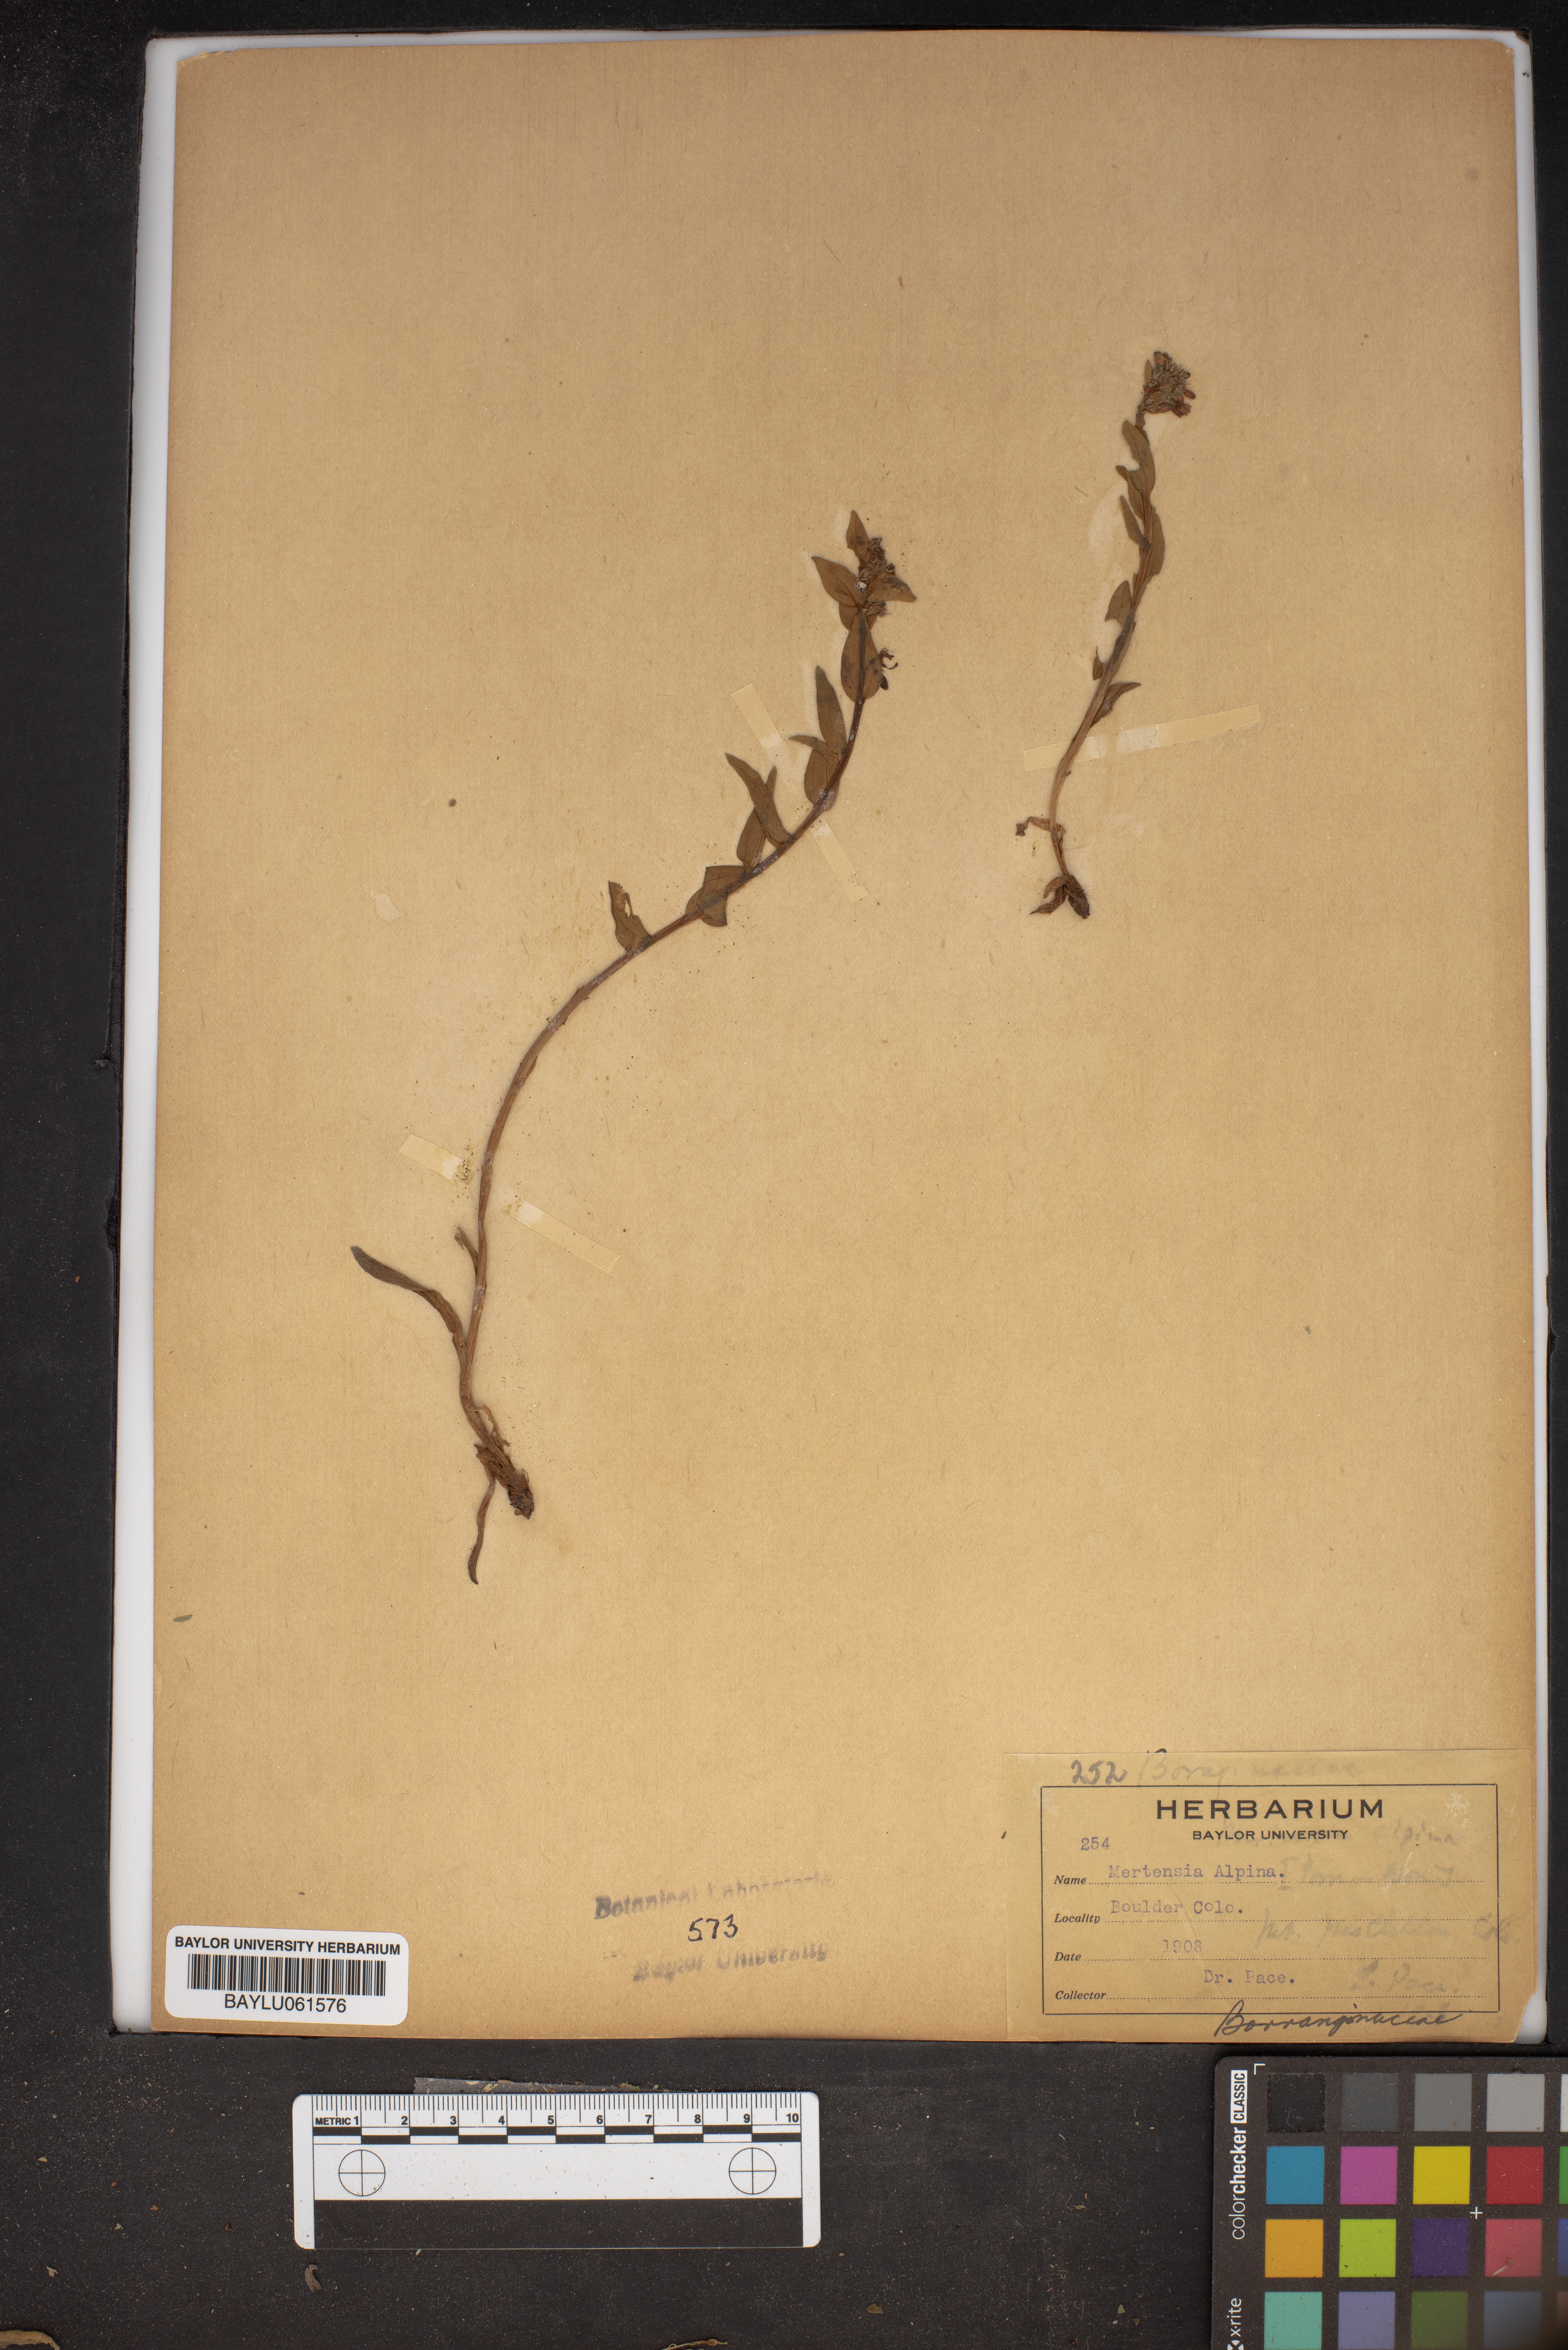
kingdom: Plantae
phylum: Tracheophyta
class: Magnoliopsida
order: Boraginales
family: Boraginaceae
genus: Mertensia
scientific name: Mertensia tweedyi
